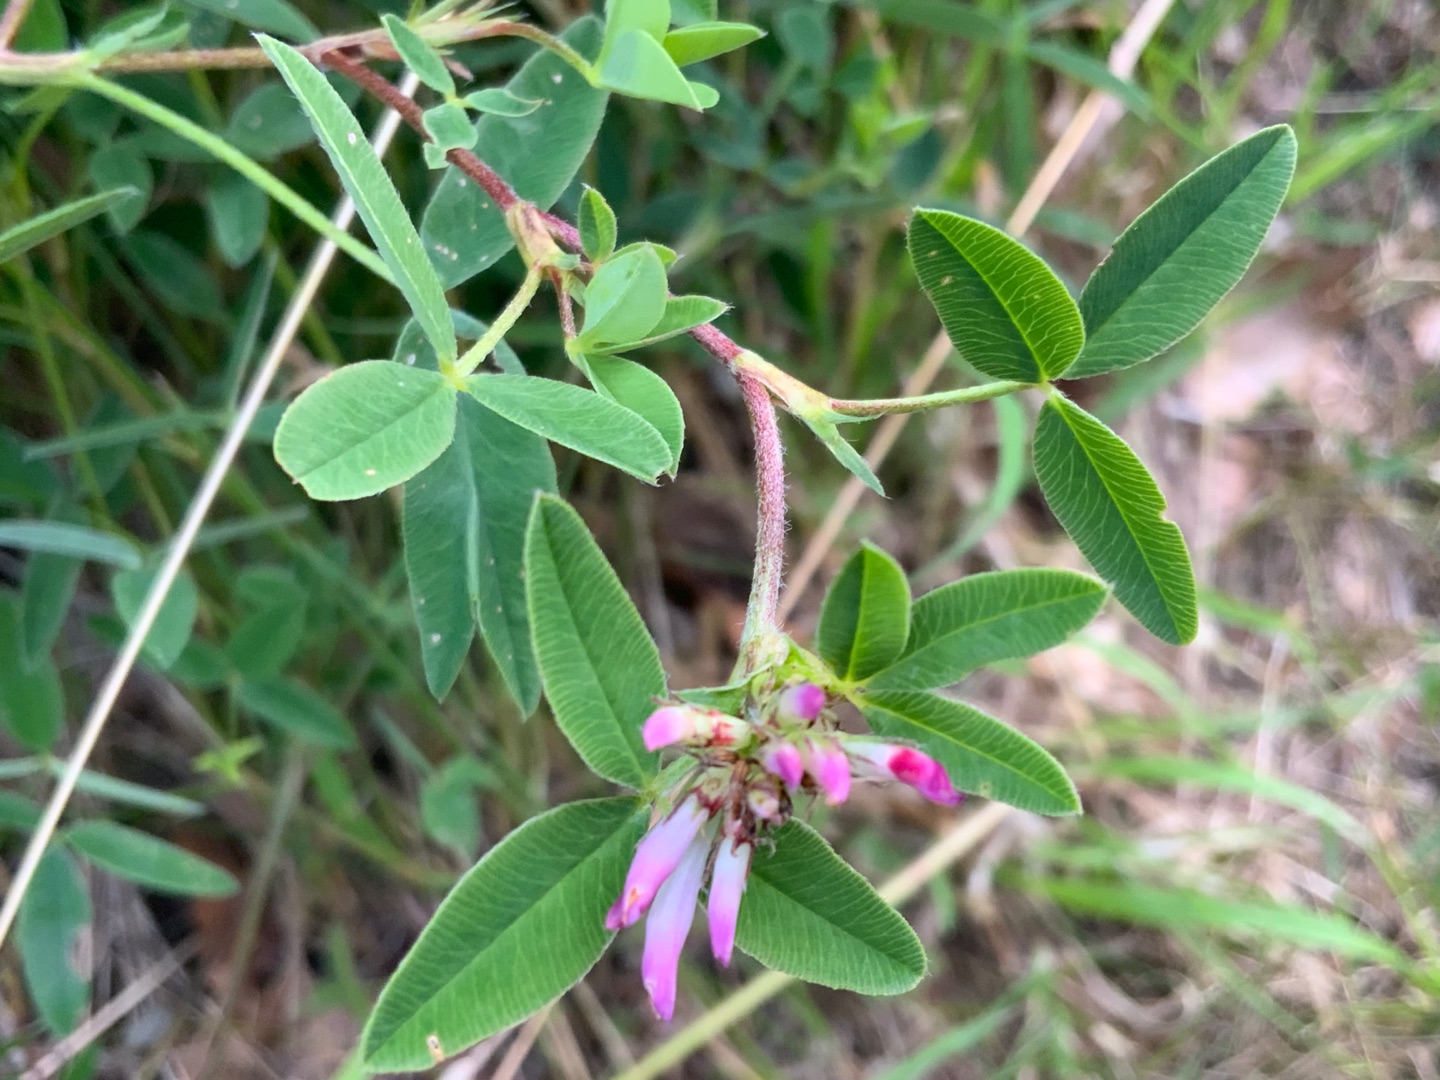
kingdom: Plantae
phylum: Tracheophyta
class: Magnoliopsida
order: Fabales
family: Fabaceae
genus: Trifolium
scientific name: Trifolium medium
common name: Bugtet kløver
